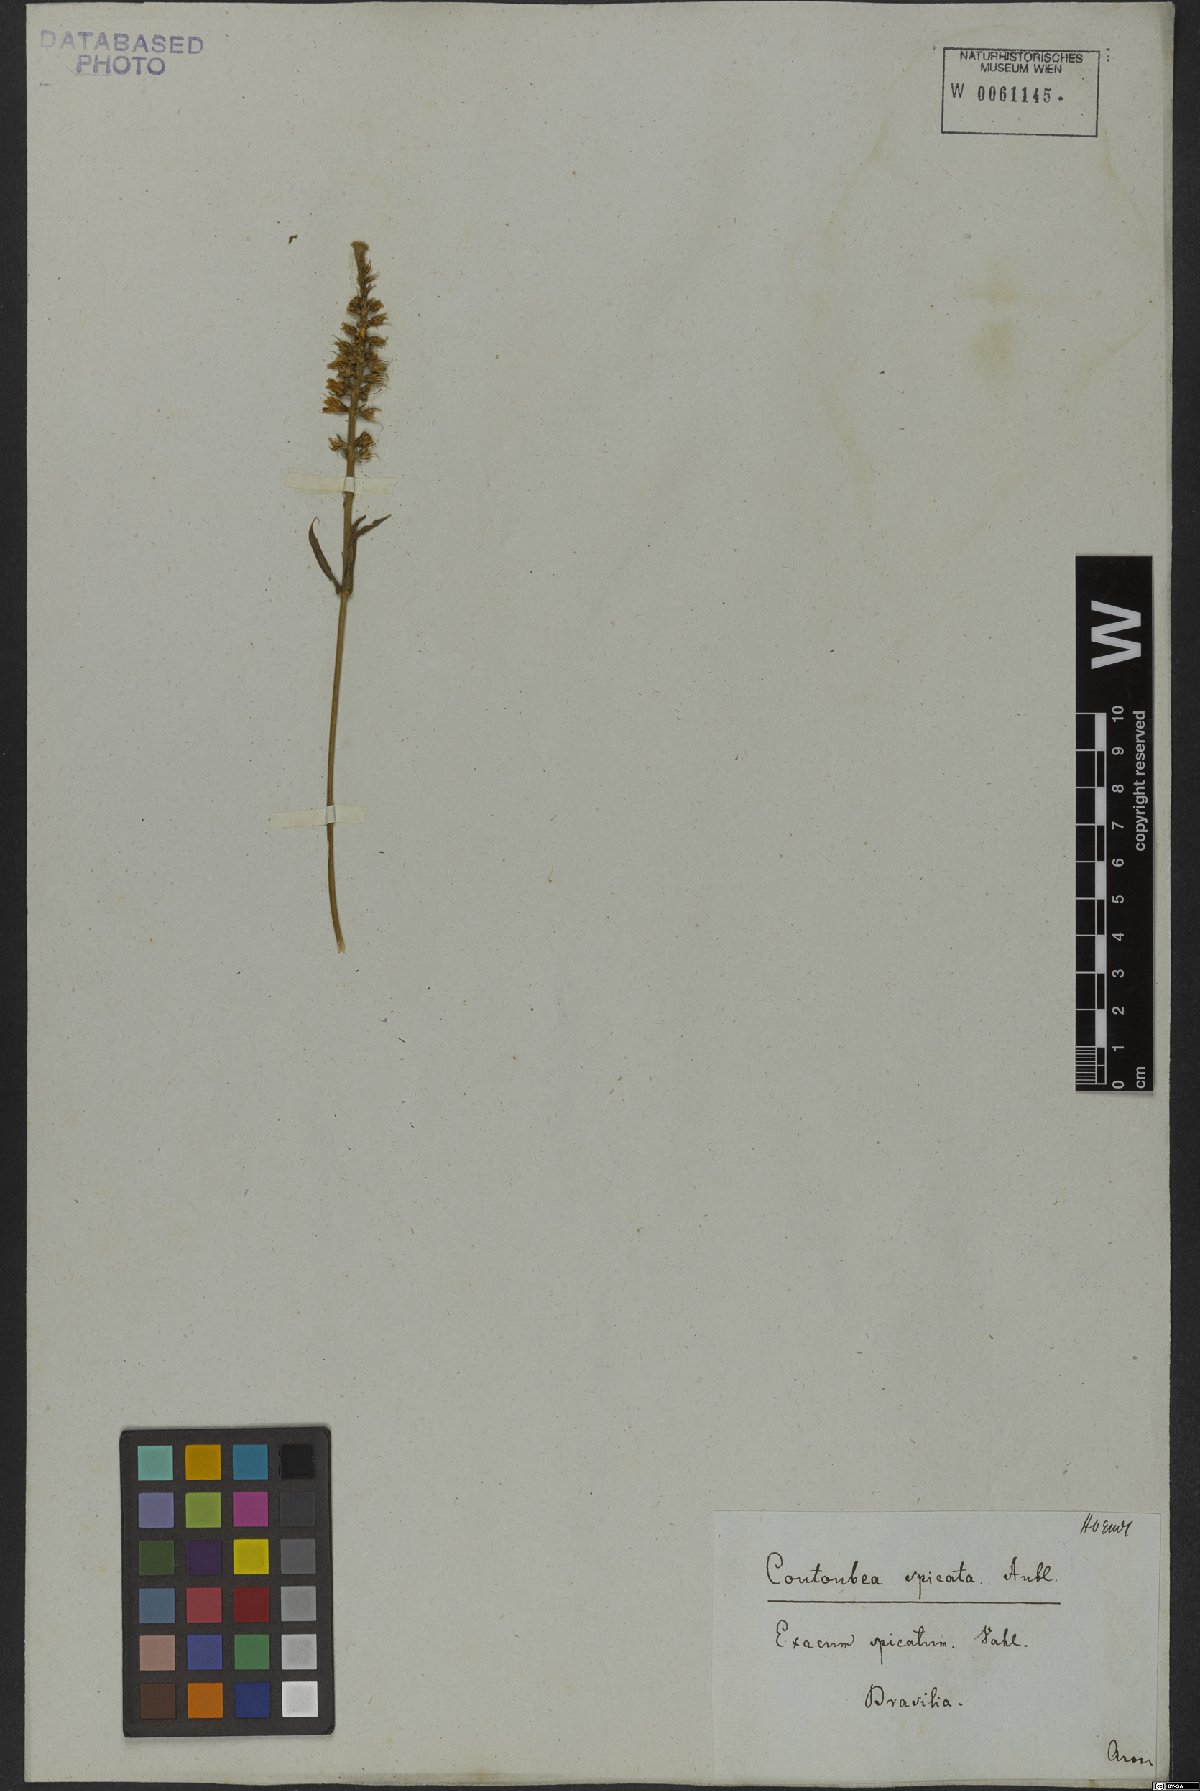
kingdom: Plantae
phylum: Tracheophyta
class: Magnoliopsida
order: Gentianales
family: Gentianaceae
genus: Coutoubea
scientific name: Coutoubea spicata
